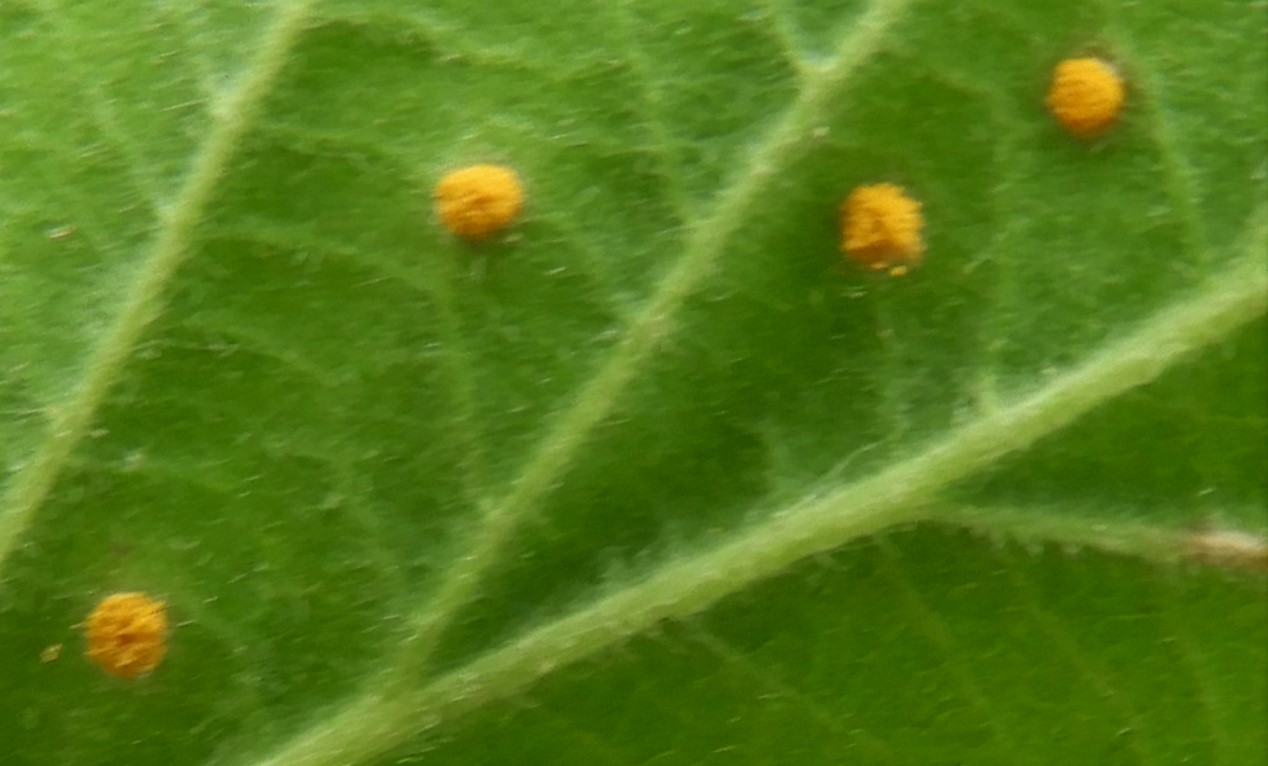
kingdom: Fungi
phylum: Basidiomycota
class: Pucciniomycetes
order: Pucciniales
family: Phragmidiaceae
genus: Phragmidium
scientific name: Phragmidium rubi-idaei
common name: hindbær-flercellerust
